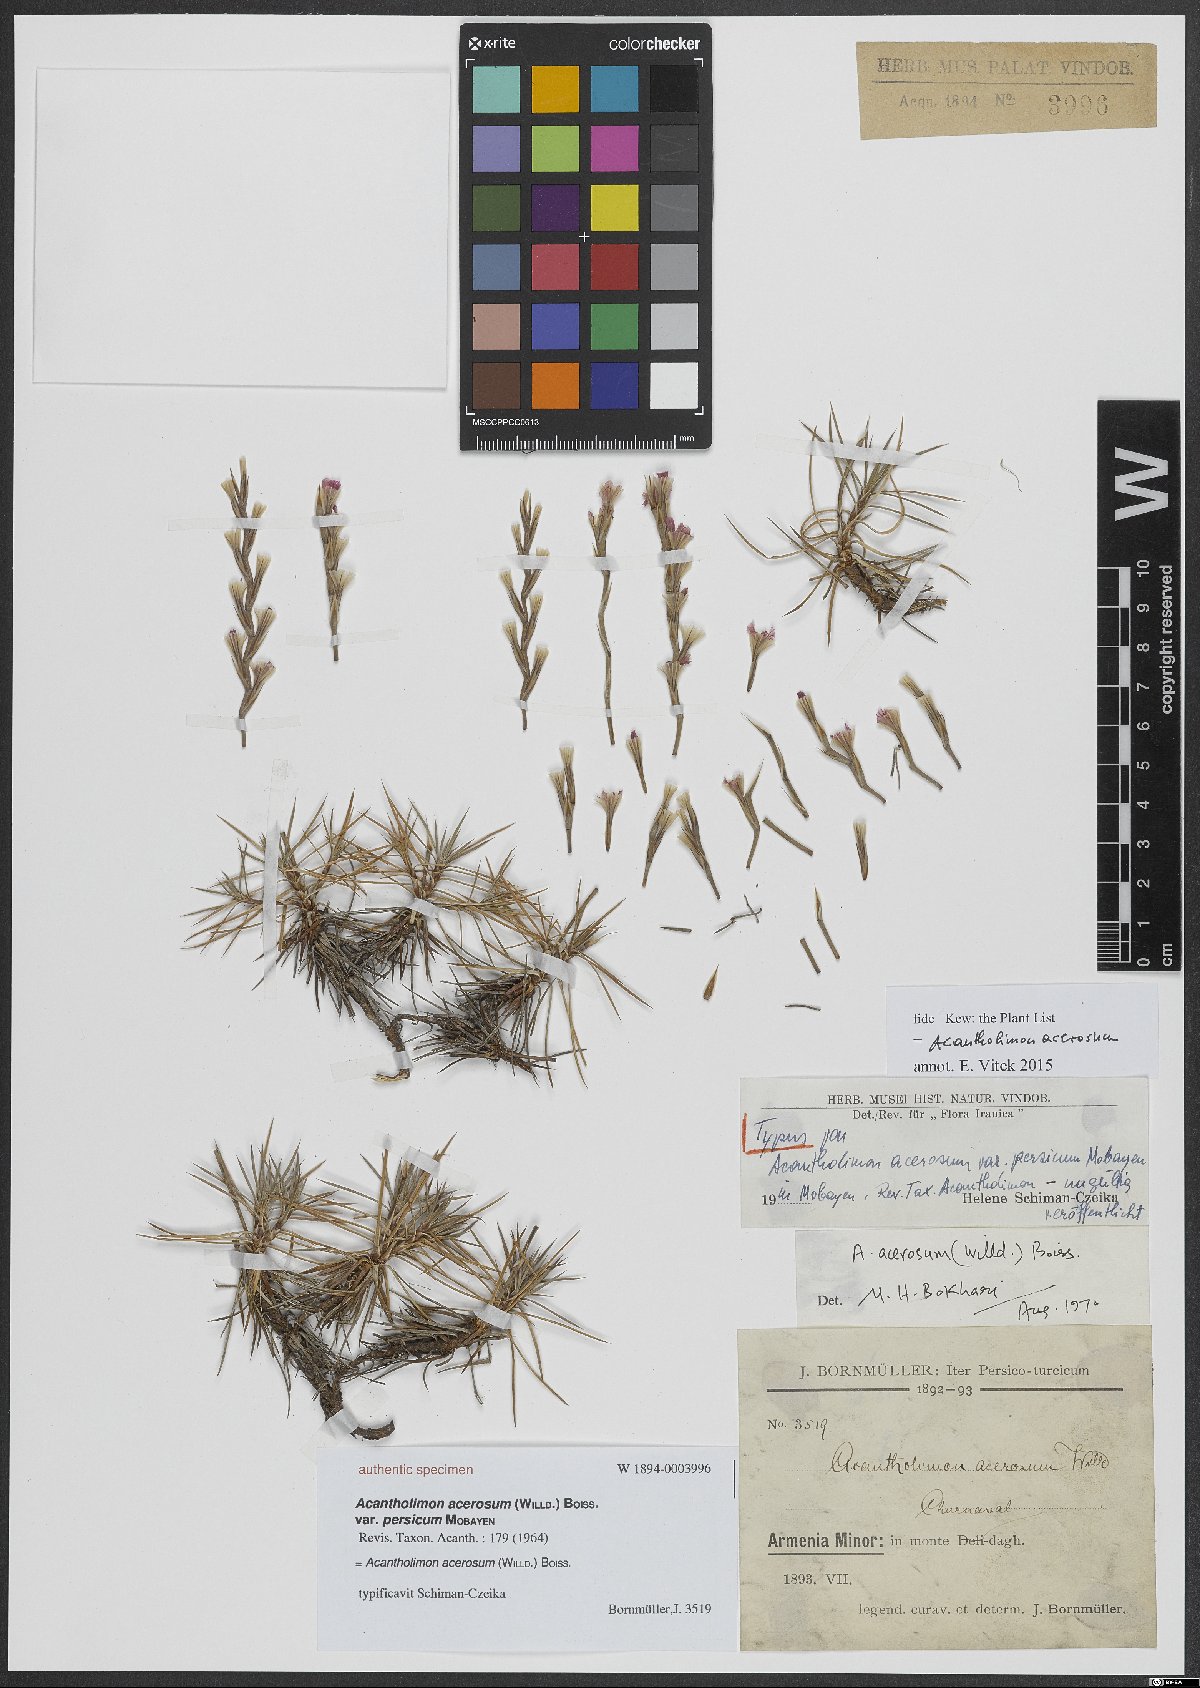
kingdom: Plantae
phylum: Tracheophyta
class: Magnoliopsida
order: Caryophyllales
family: Plumbaginaceae
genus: Acantholimon
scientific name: Acantholimon acerosum
